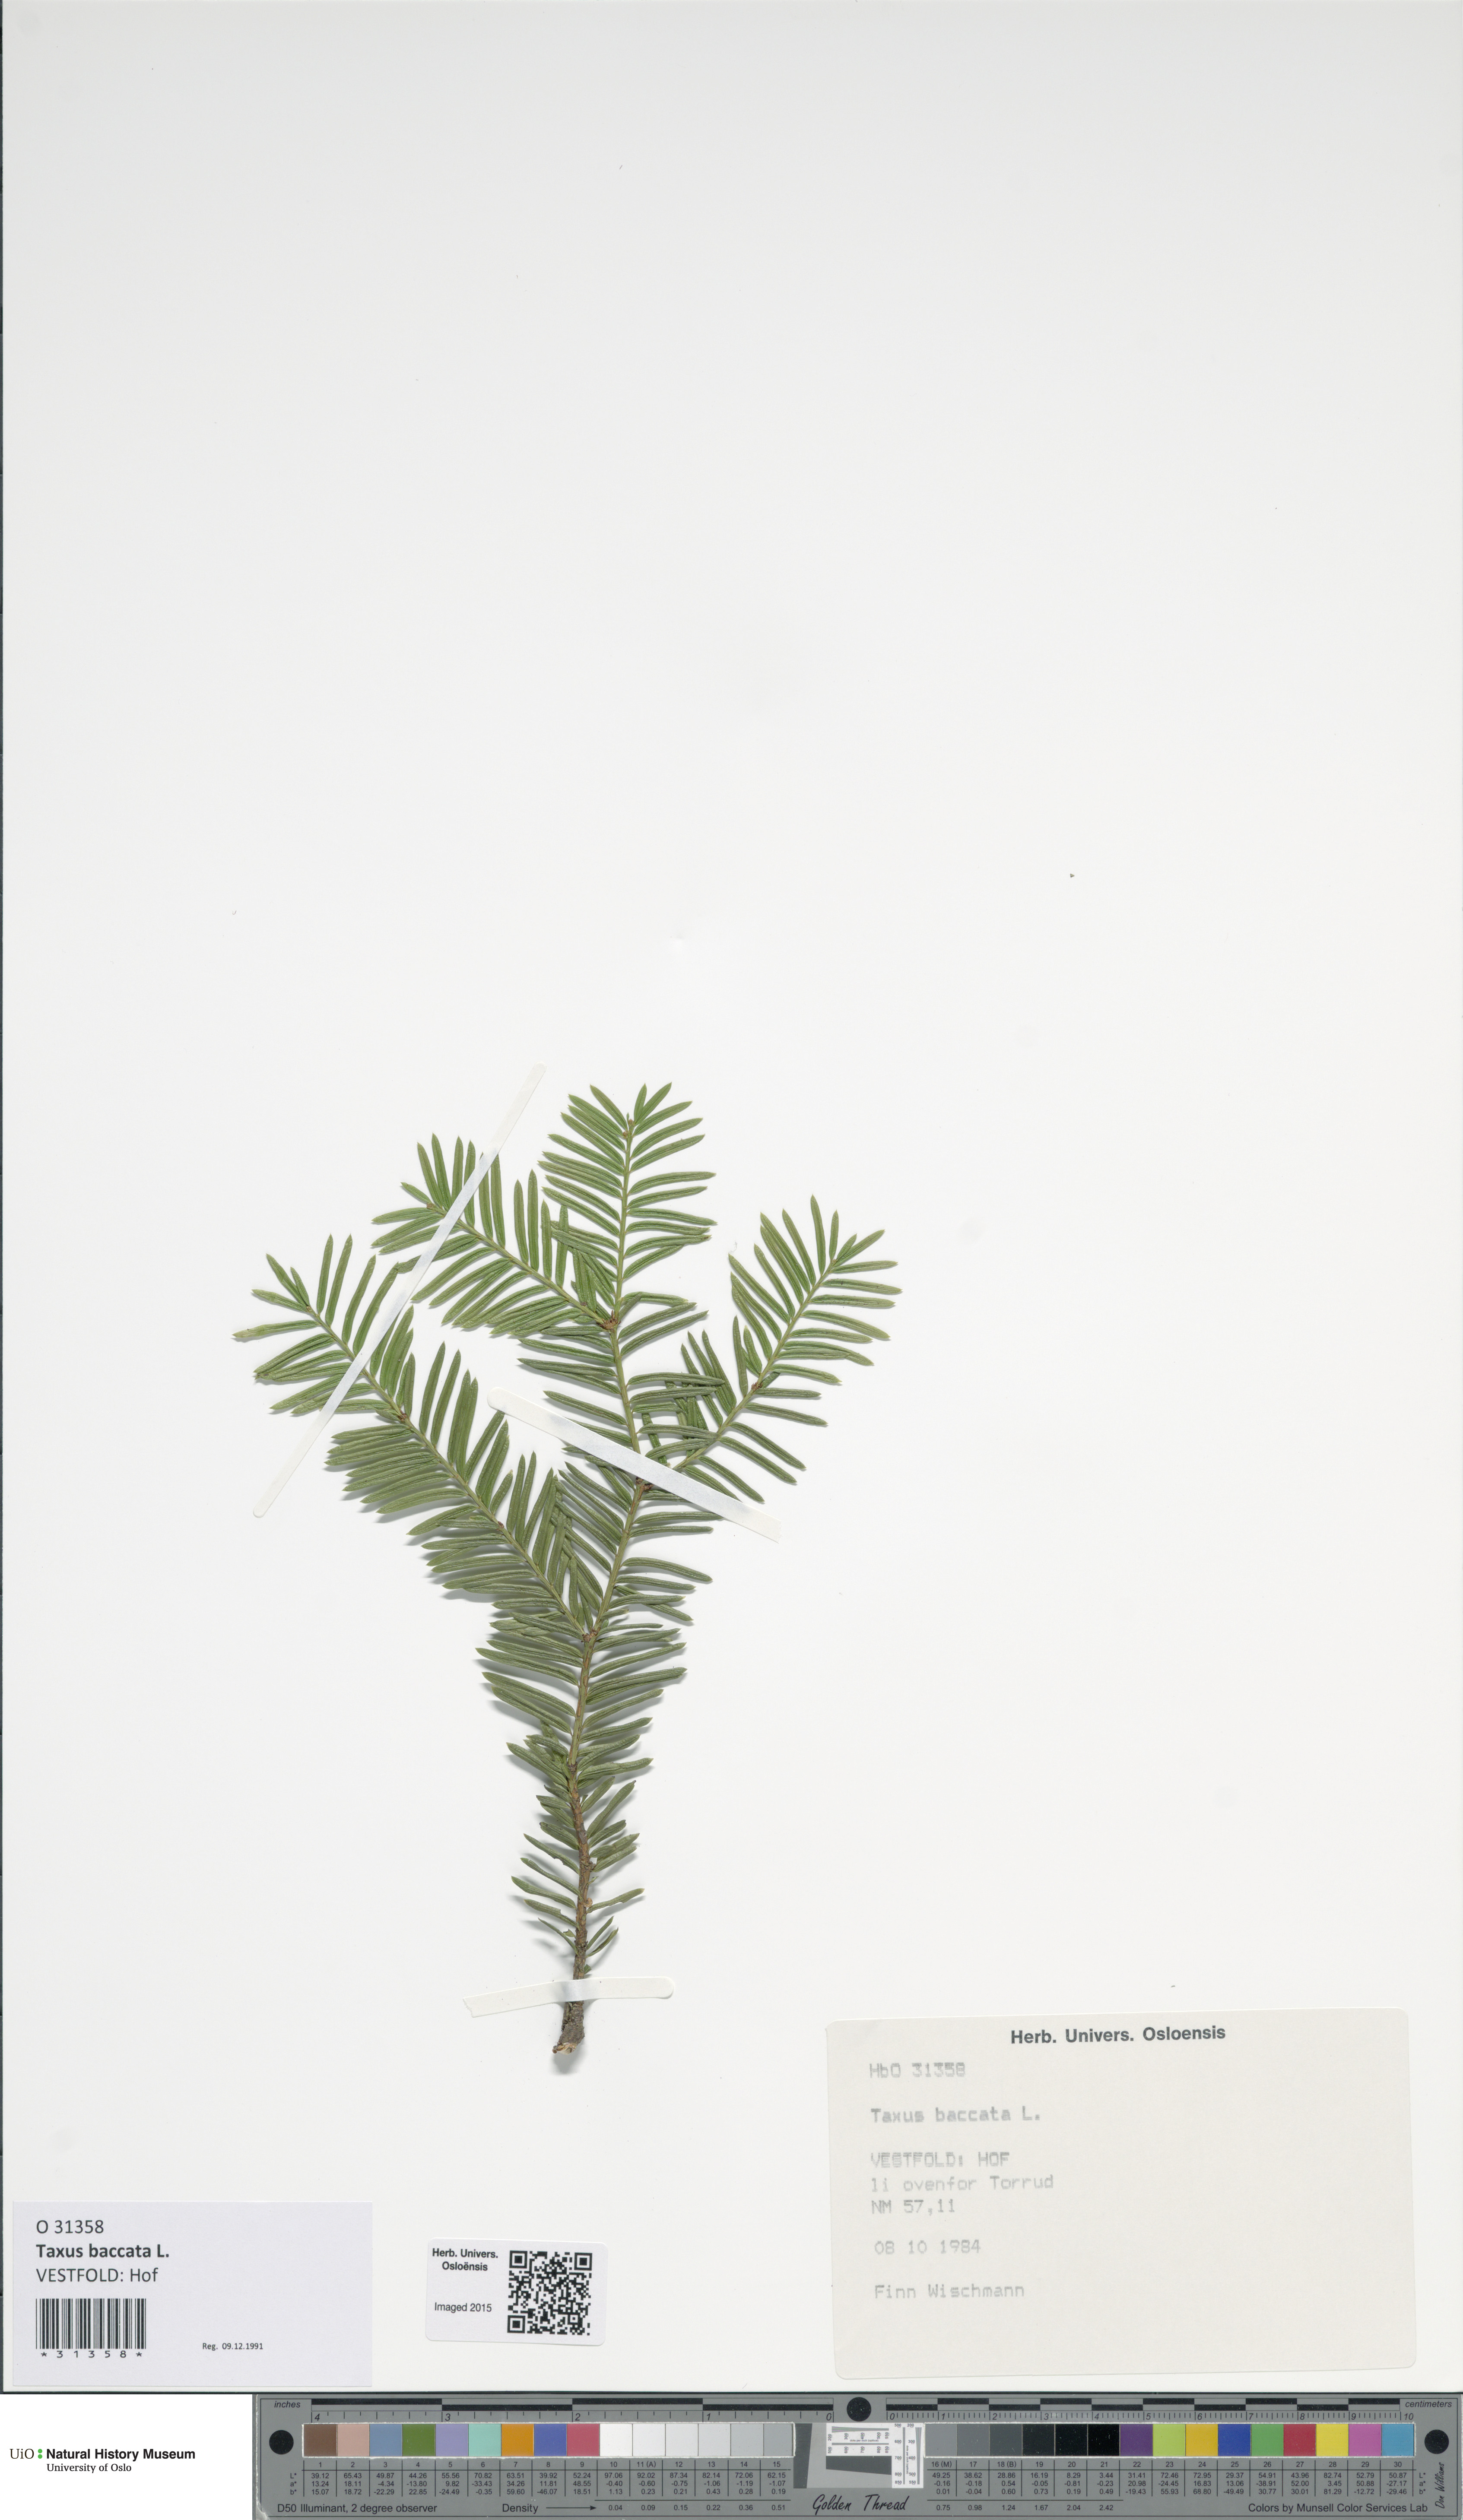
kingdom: Plantae
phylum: Tracheophyta
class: Pinopsida
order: Pinales
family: Taxaceae
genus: Taxus
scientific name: Taxus baccata
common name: Yew
